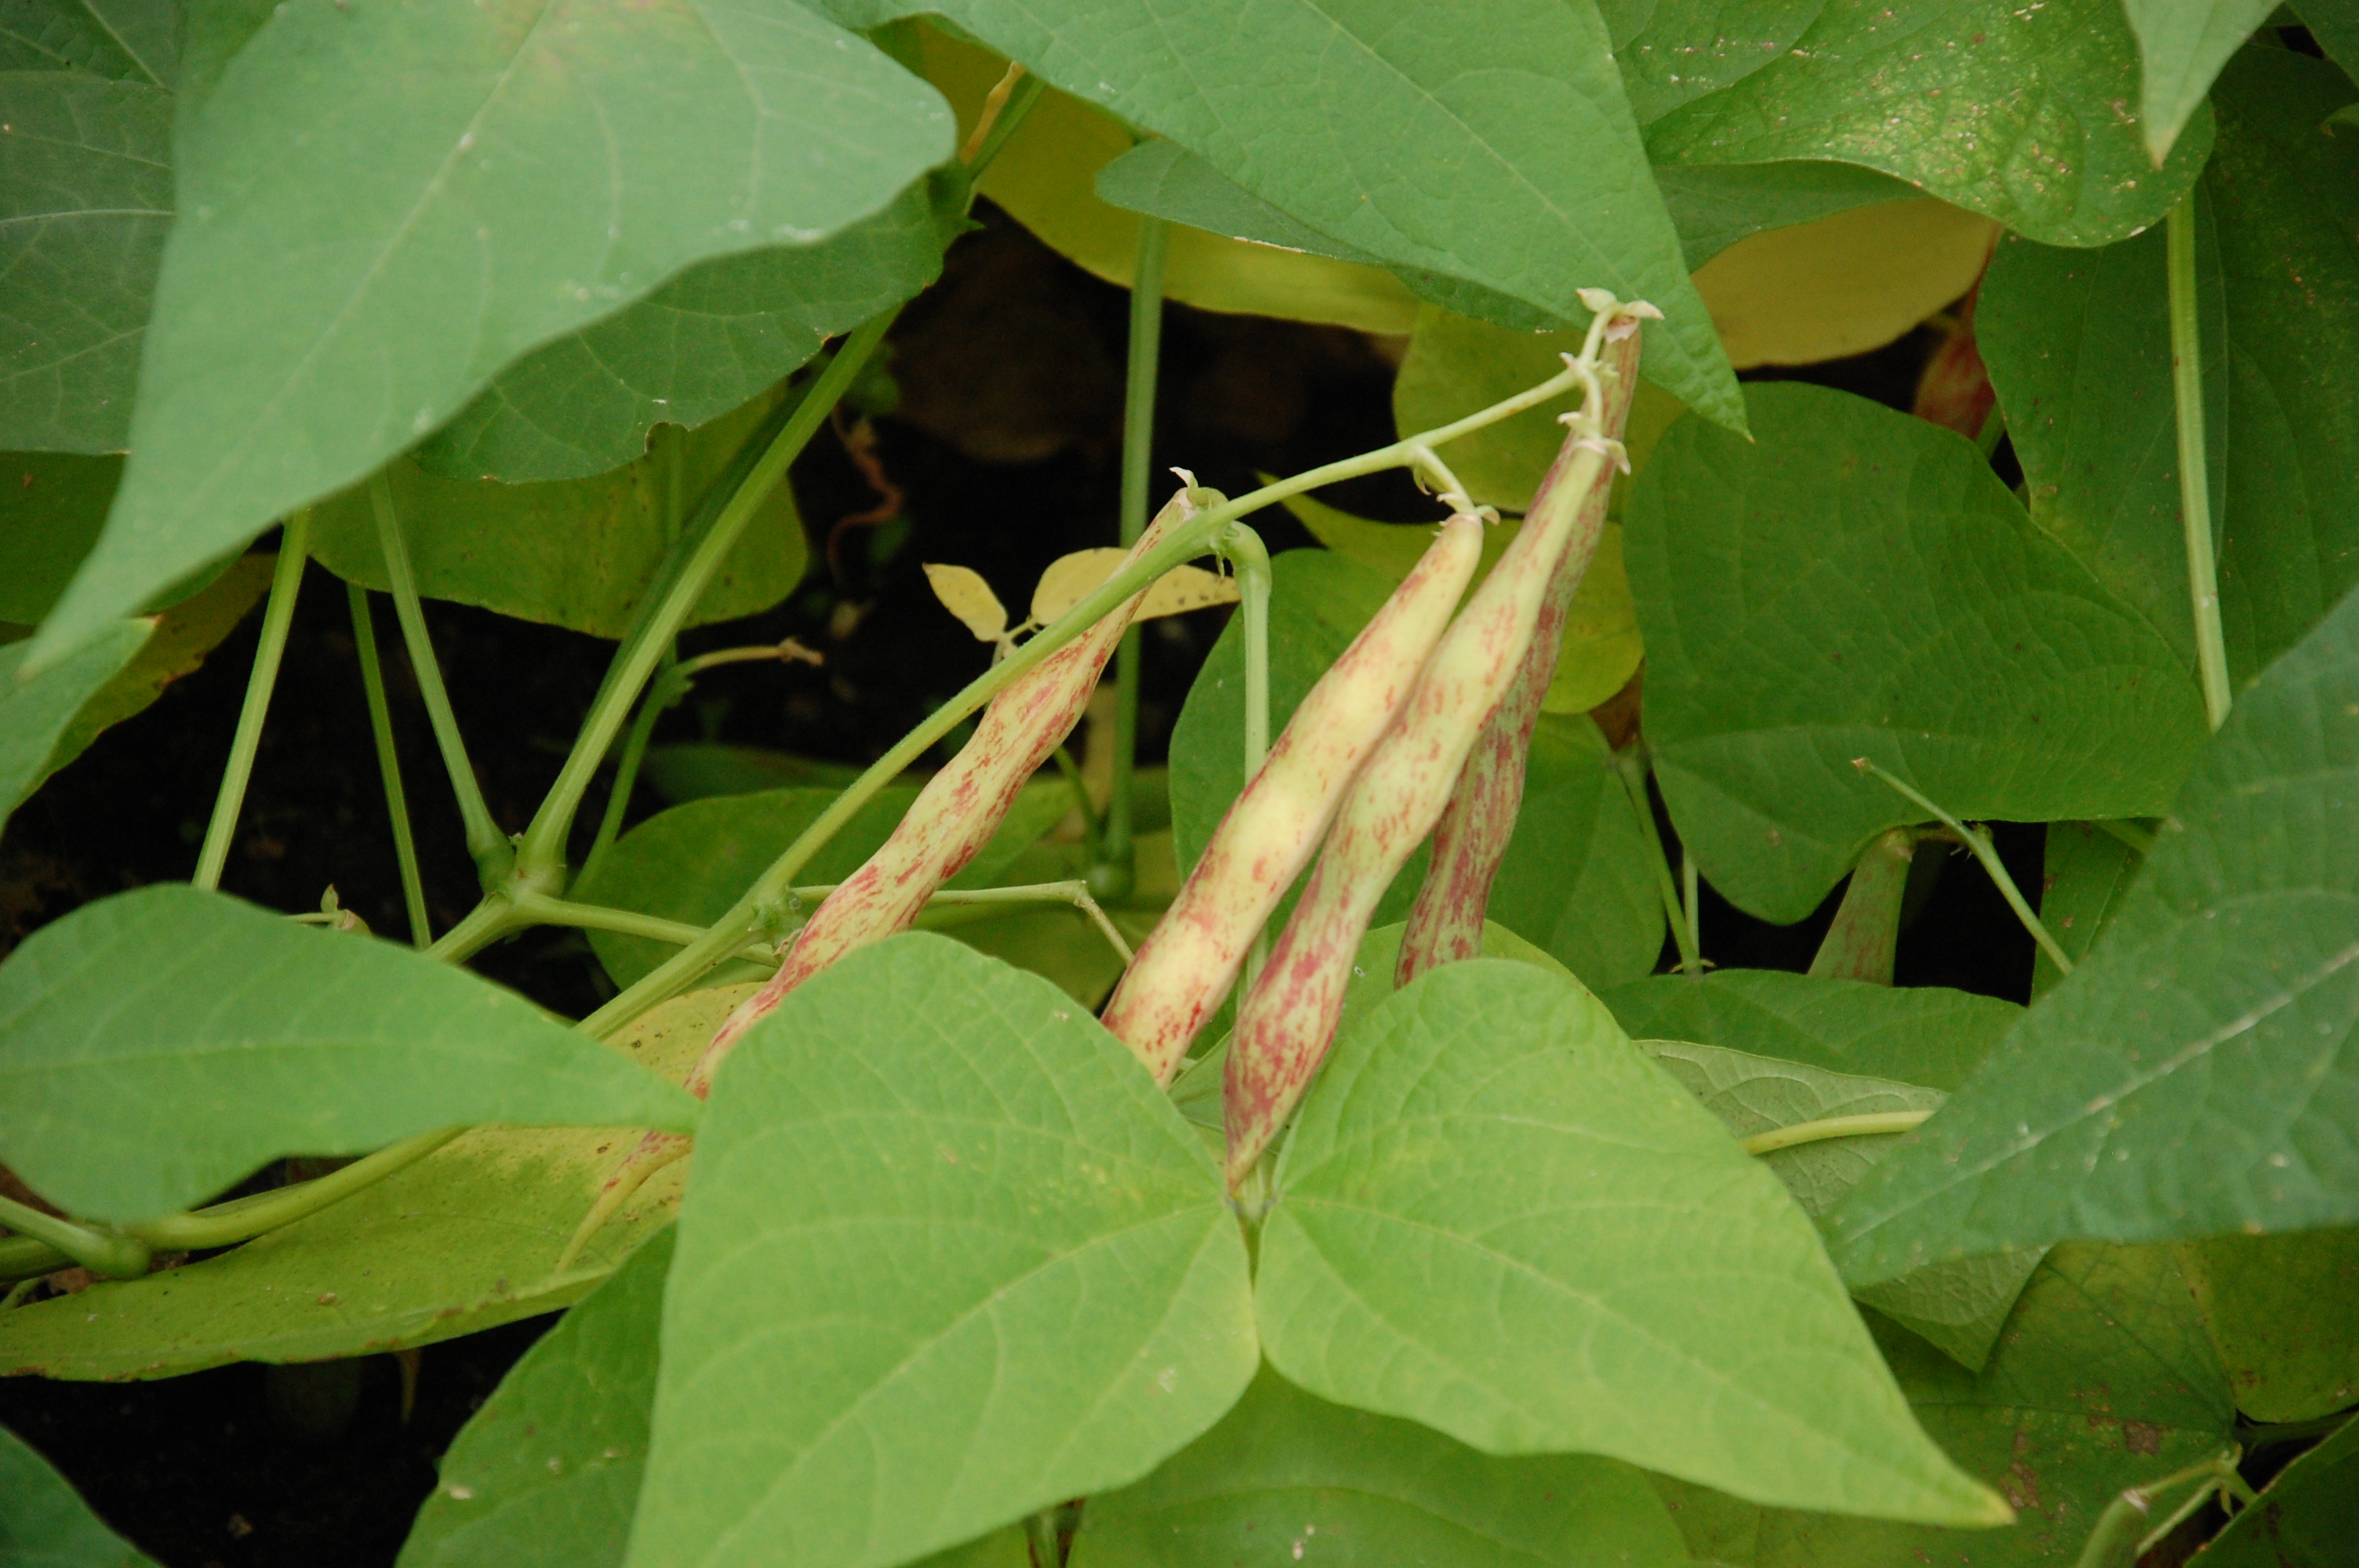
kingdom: Plantae
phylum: Tracheophyta
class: Magnoliopsida
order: Fabales
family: Fabaceae
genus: Phaseolus
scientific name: Phaseolus vulgaris
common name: Bean
